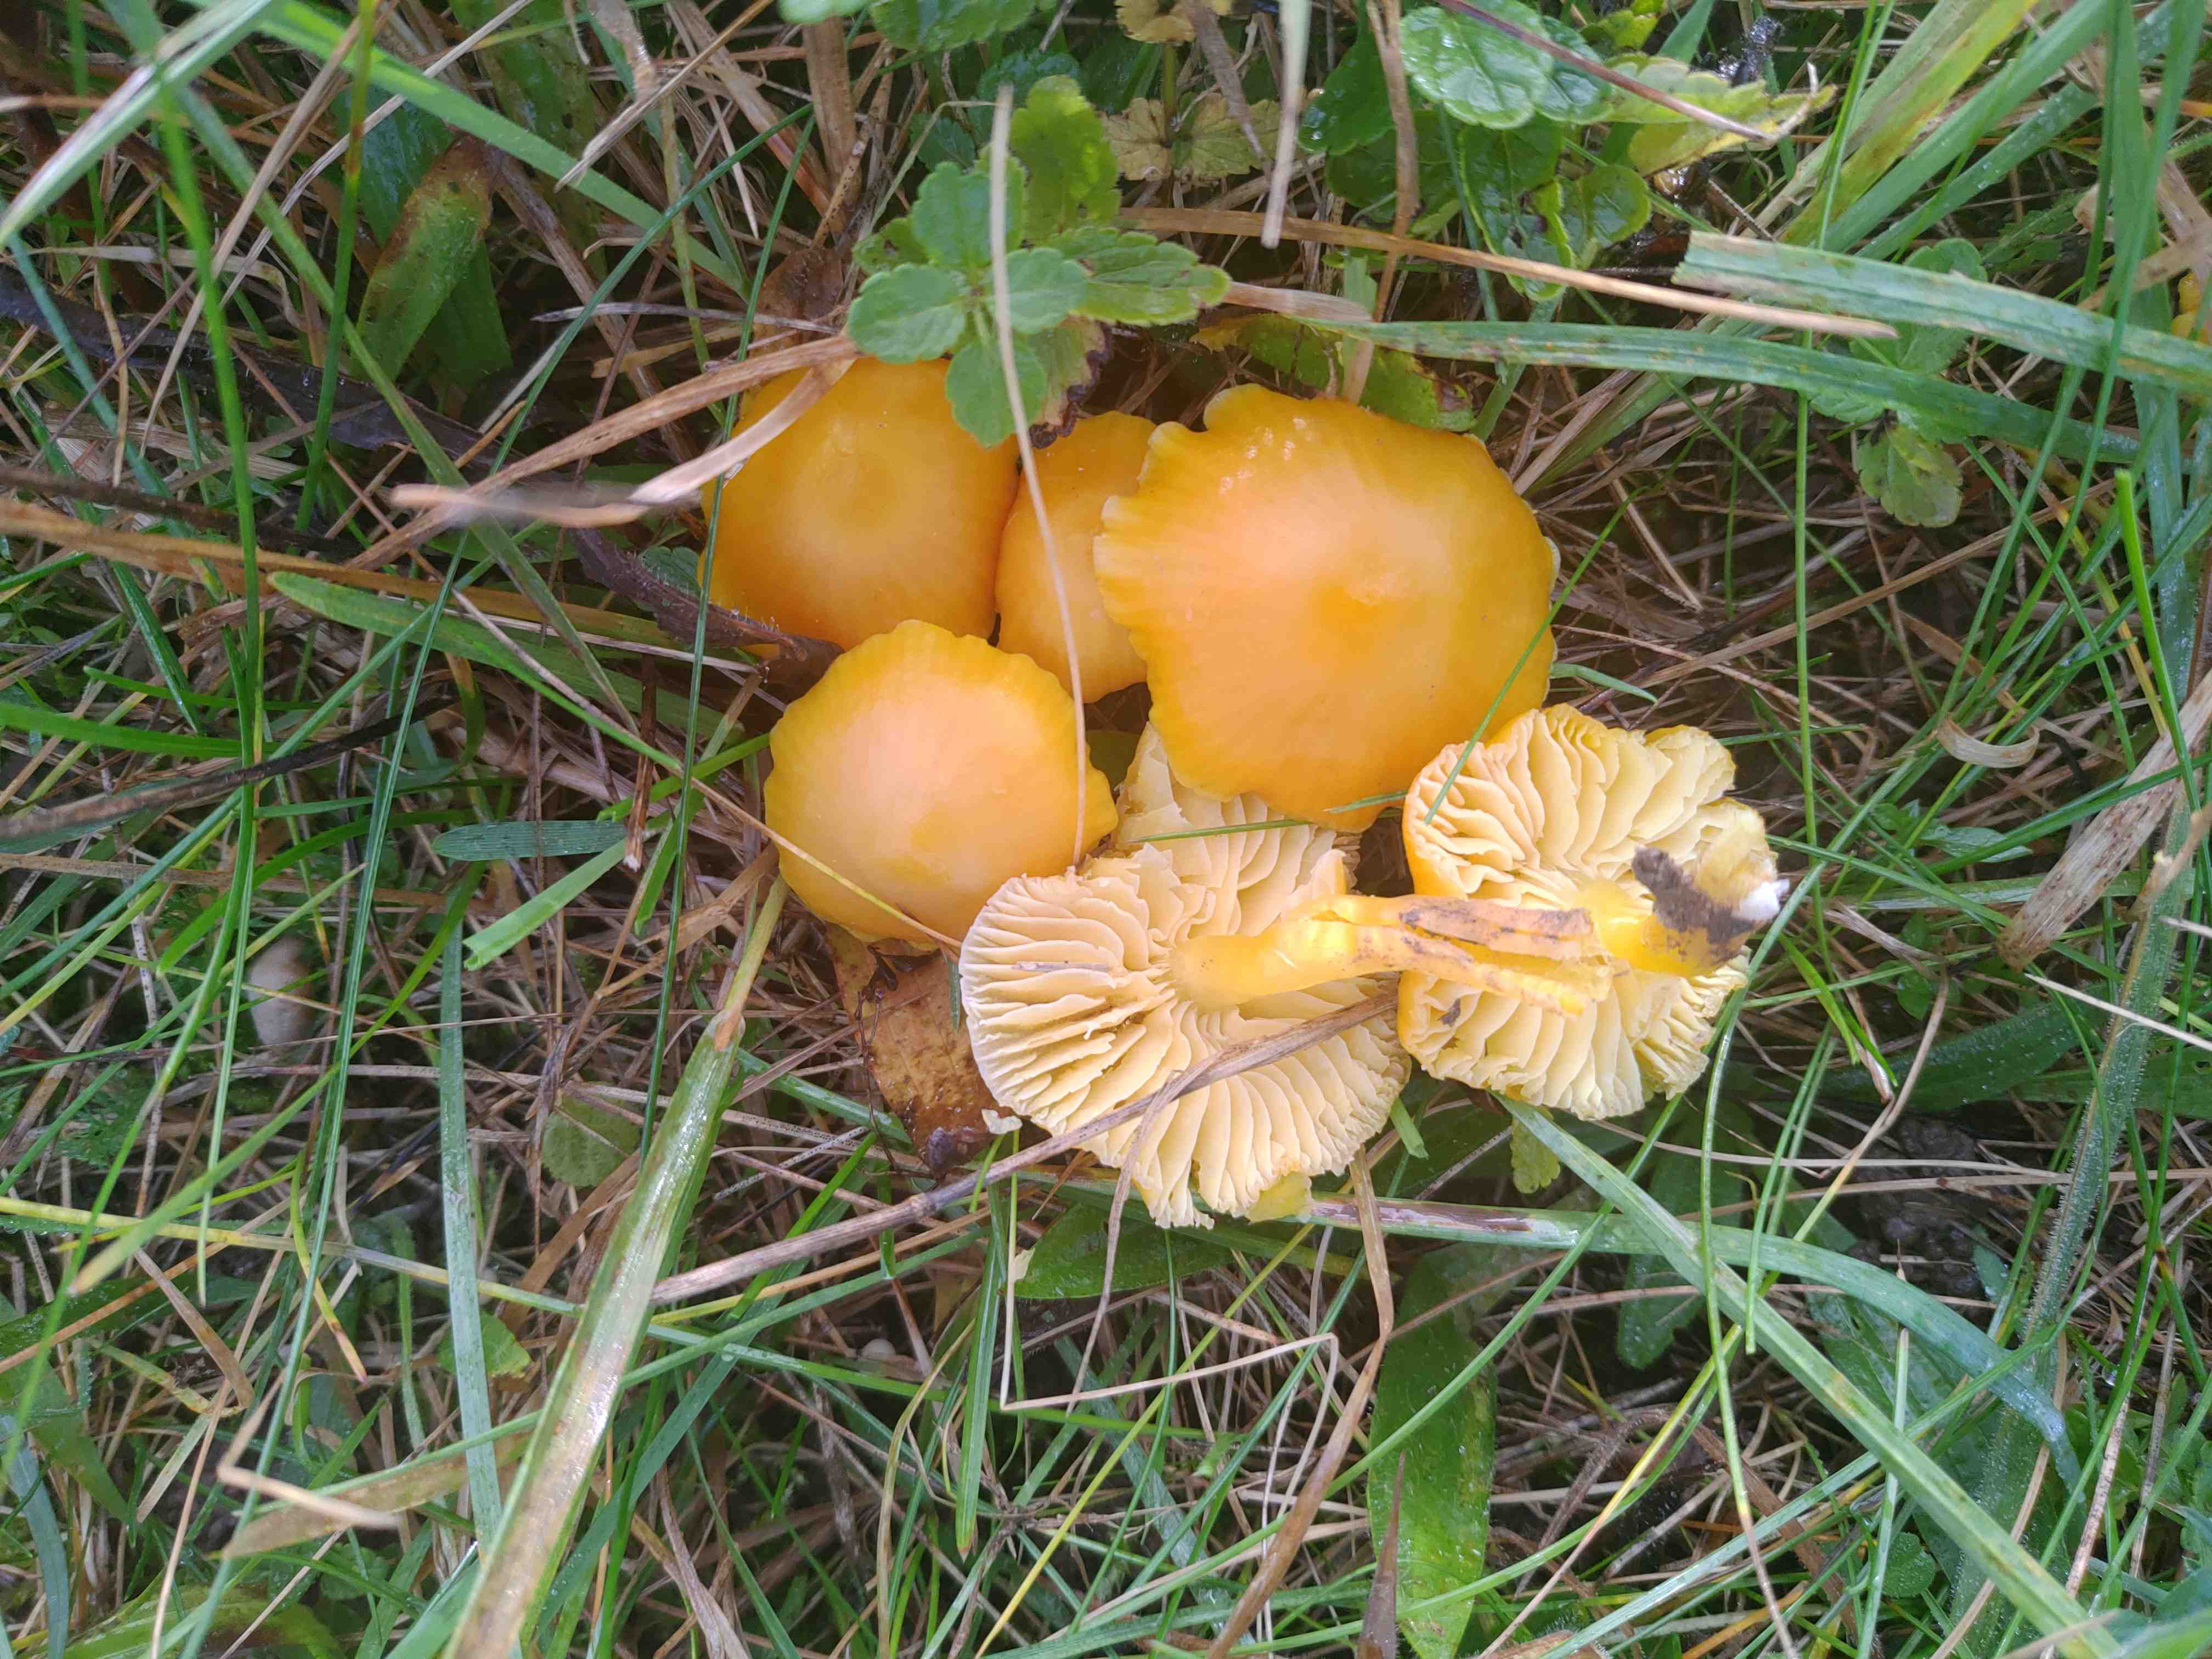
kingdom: Fungi
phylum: Basidiomycota
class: Agaricomycetes
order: Agaricales
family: Hygrophoraceae
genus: Hygrocybe
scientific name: Hygrocybe ceracea
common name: voksgul vokshat
